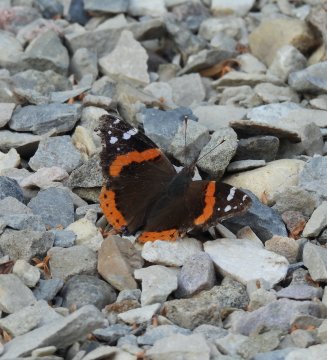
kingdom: Animalia
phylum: Arthropoda
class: Insecta
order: Lepidoptera
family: Nymphalidae
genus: Vanessa
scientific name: Vanessa atalanta
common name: Red Admiral
